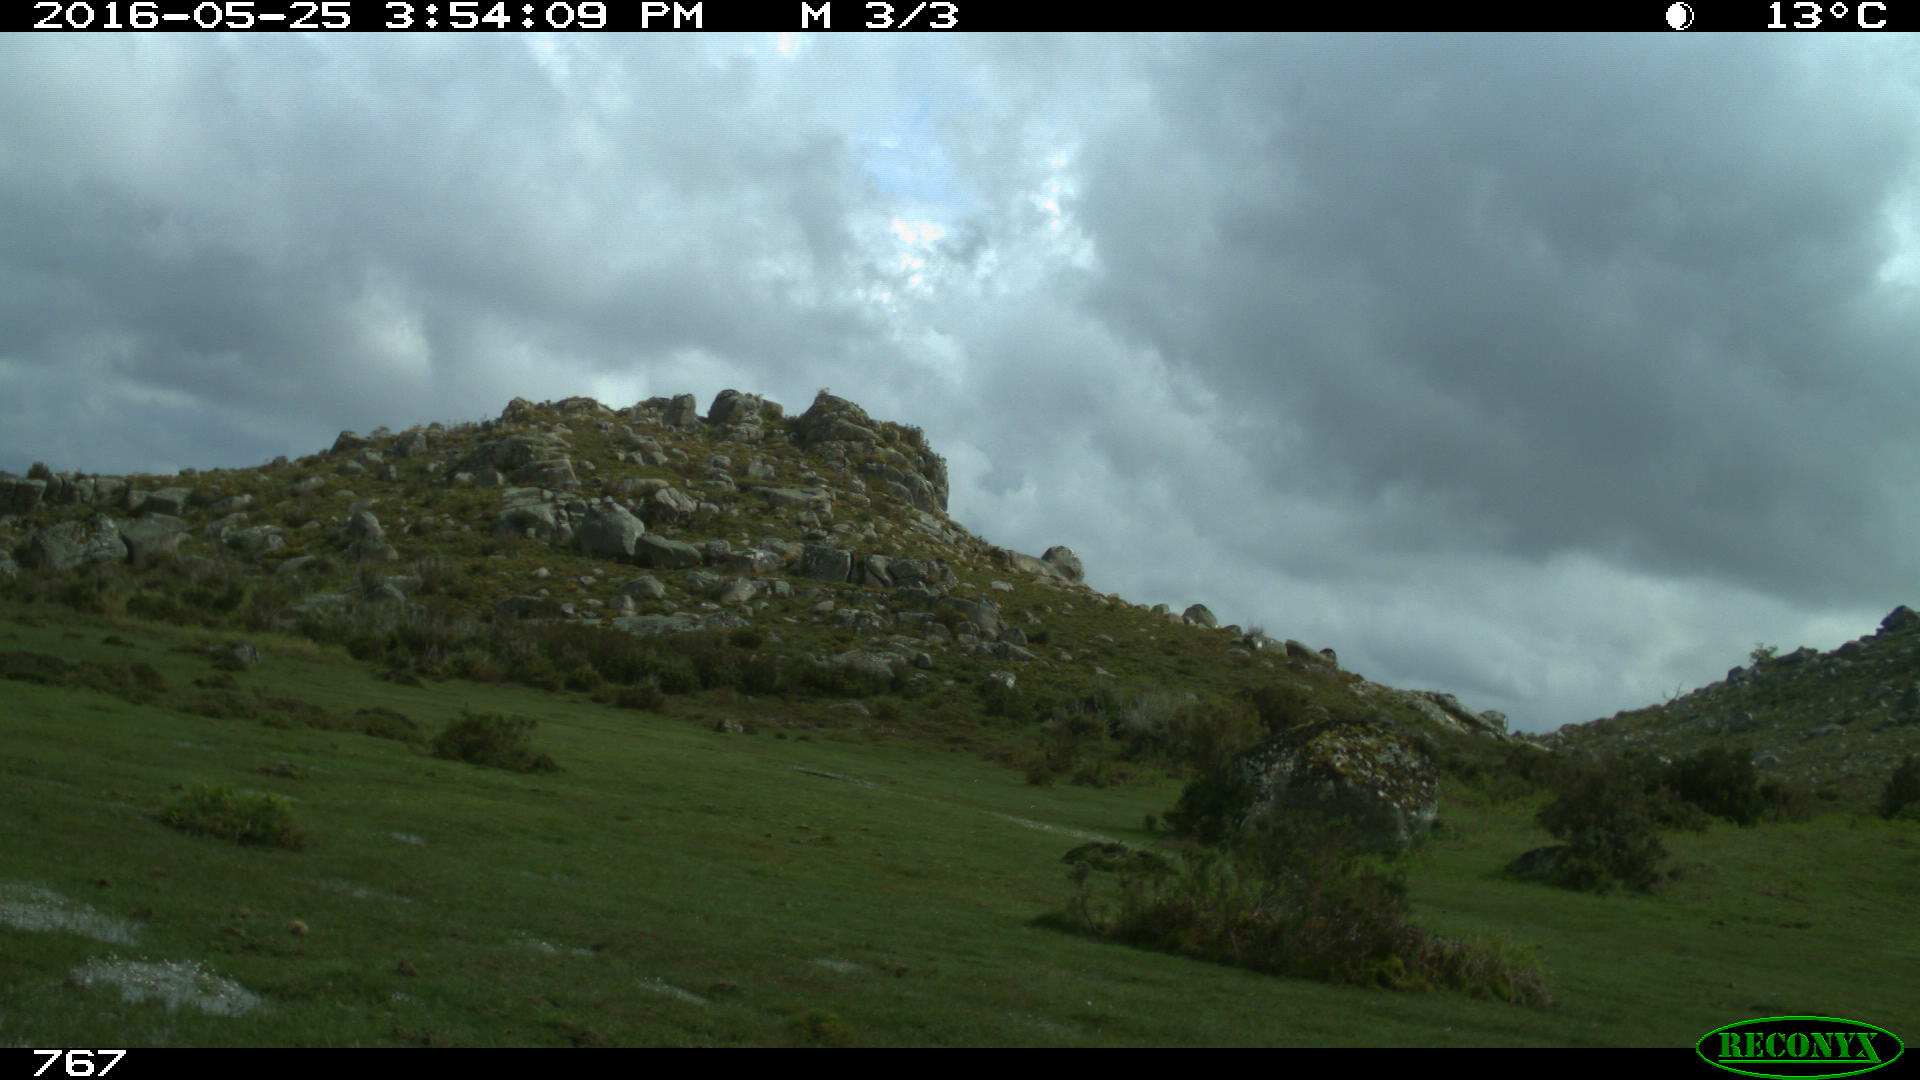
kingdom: Animalia
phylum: Chordata
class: Mammalia
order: Perissodactyla
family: Equidae
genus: Equus
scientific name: Equus caballus
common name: Horse
